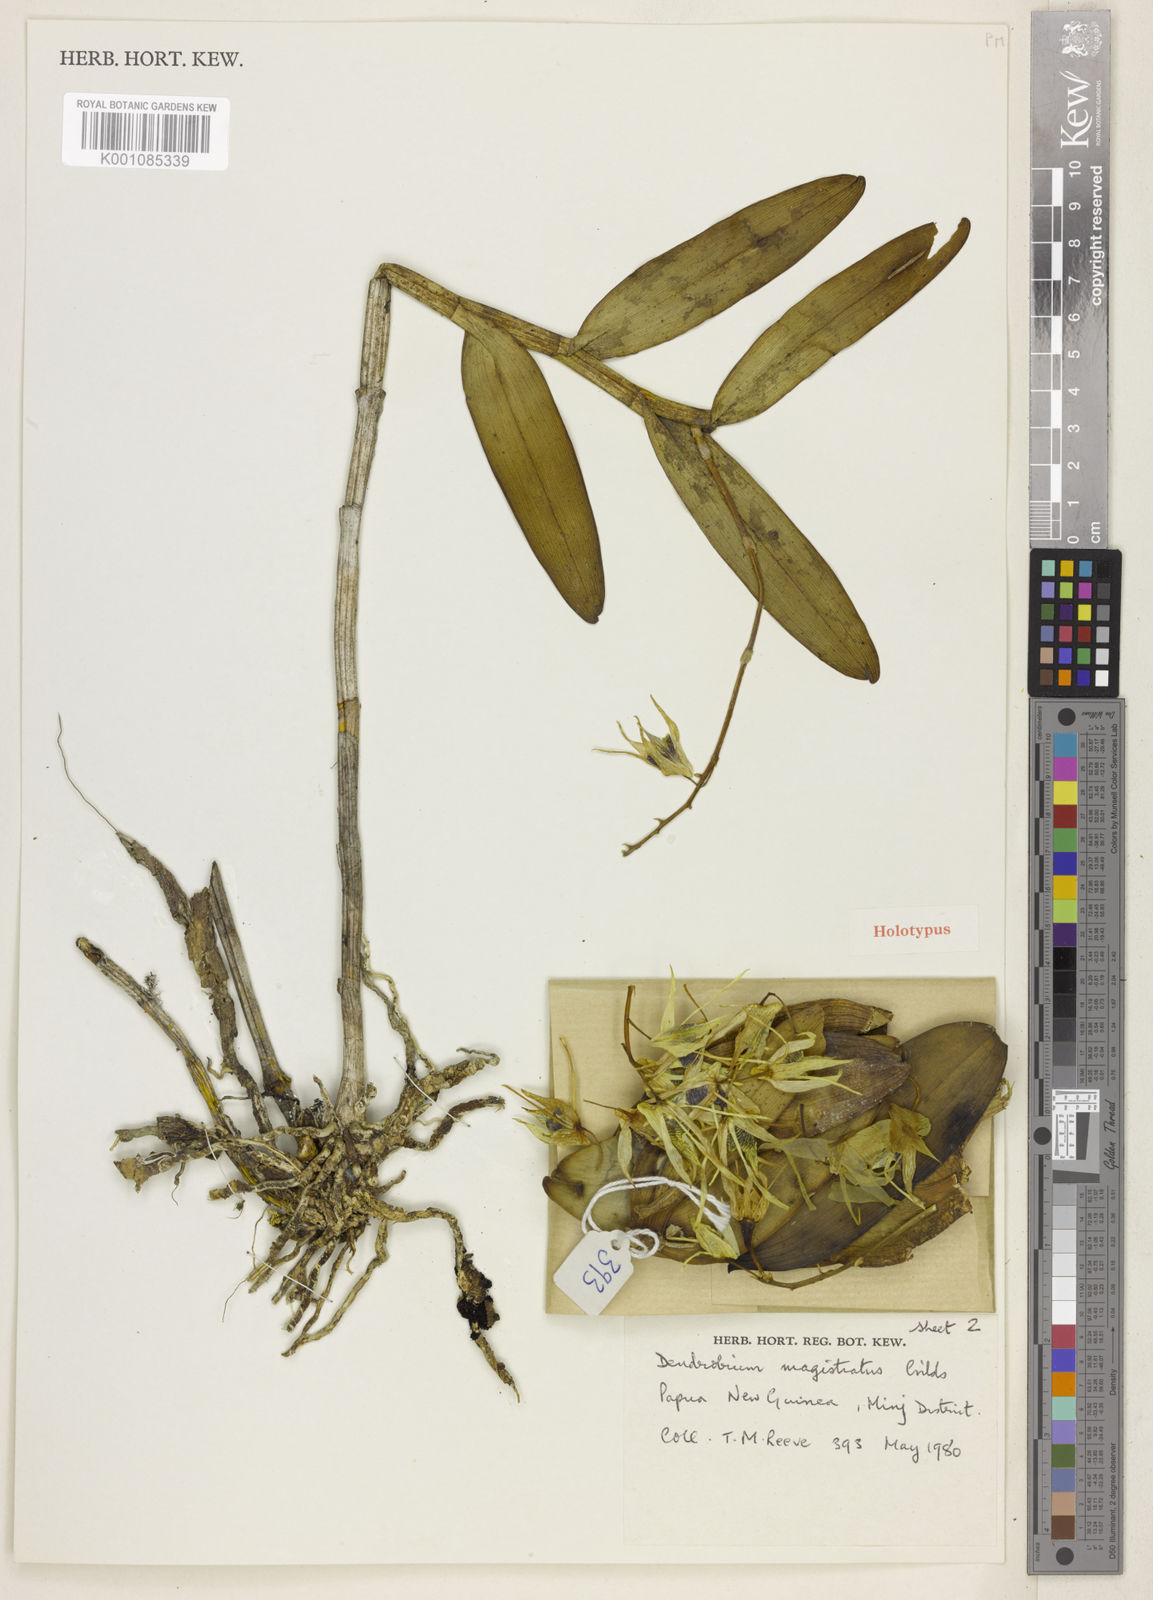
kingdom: Plantae
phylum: Tracheophyta
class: Liliopsida
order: Asparagales
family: Orchidaceae
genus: Dendrobium
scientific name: Dendrobium magistratus
